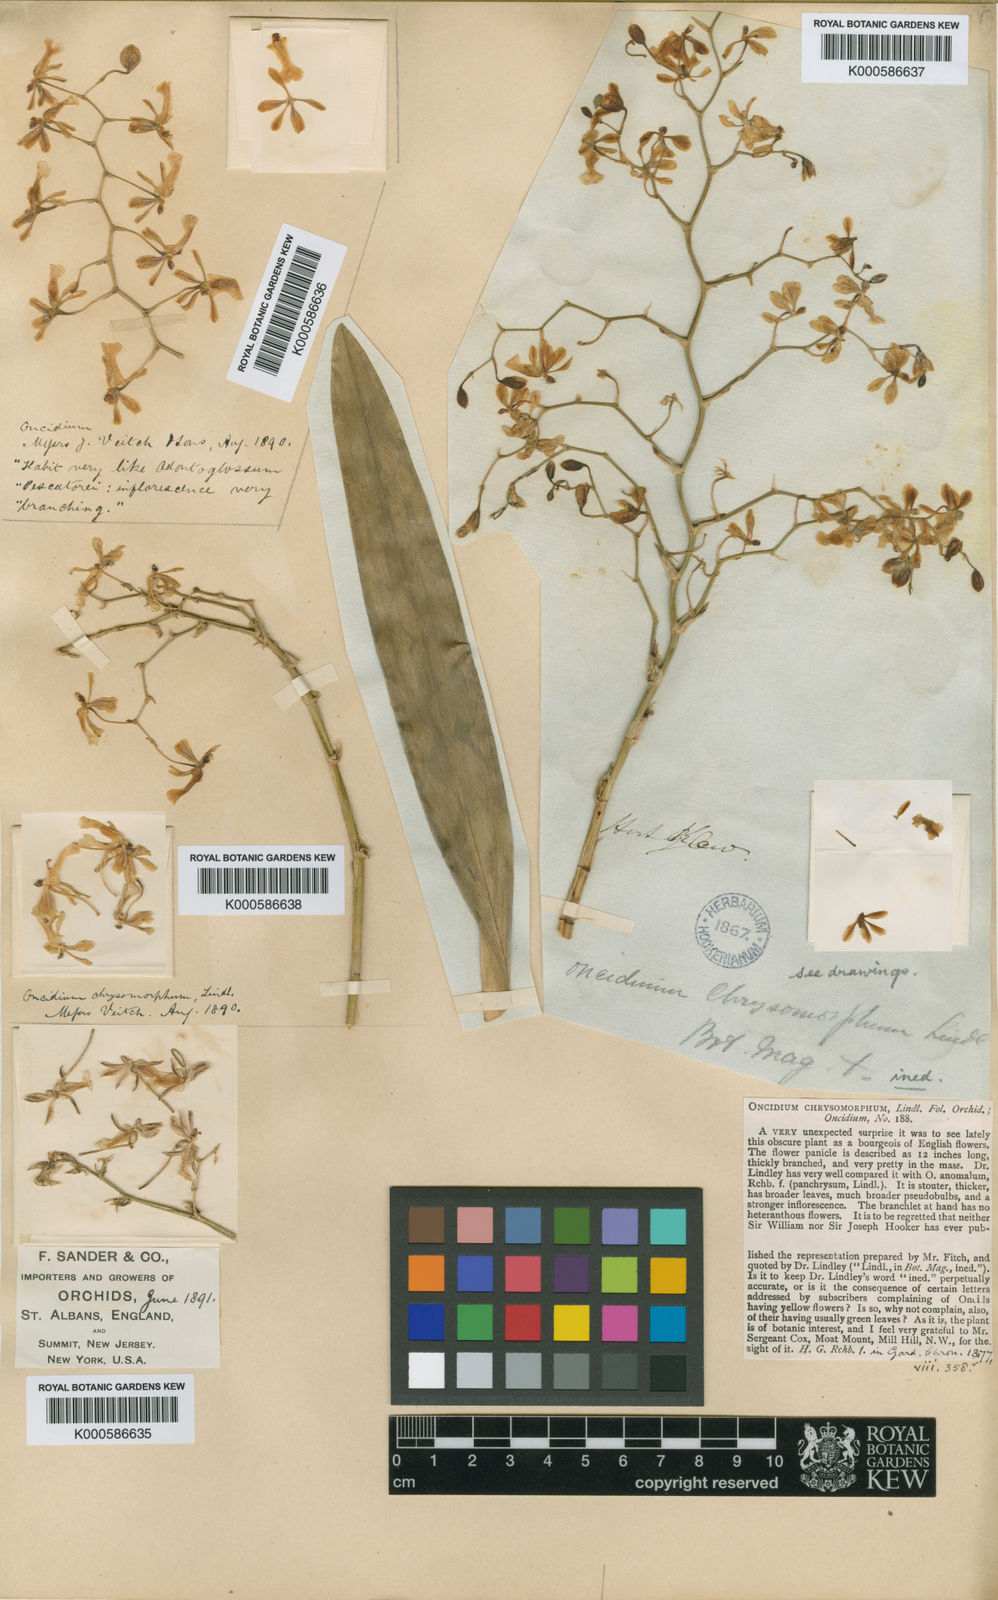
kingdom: Plantae
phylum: Tracheophyta
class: Liliopsida
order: Asparagales
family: Orchidaceae
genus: Oncidium
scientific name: Oncidium chrysomorphum
